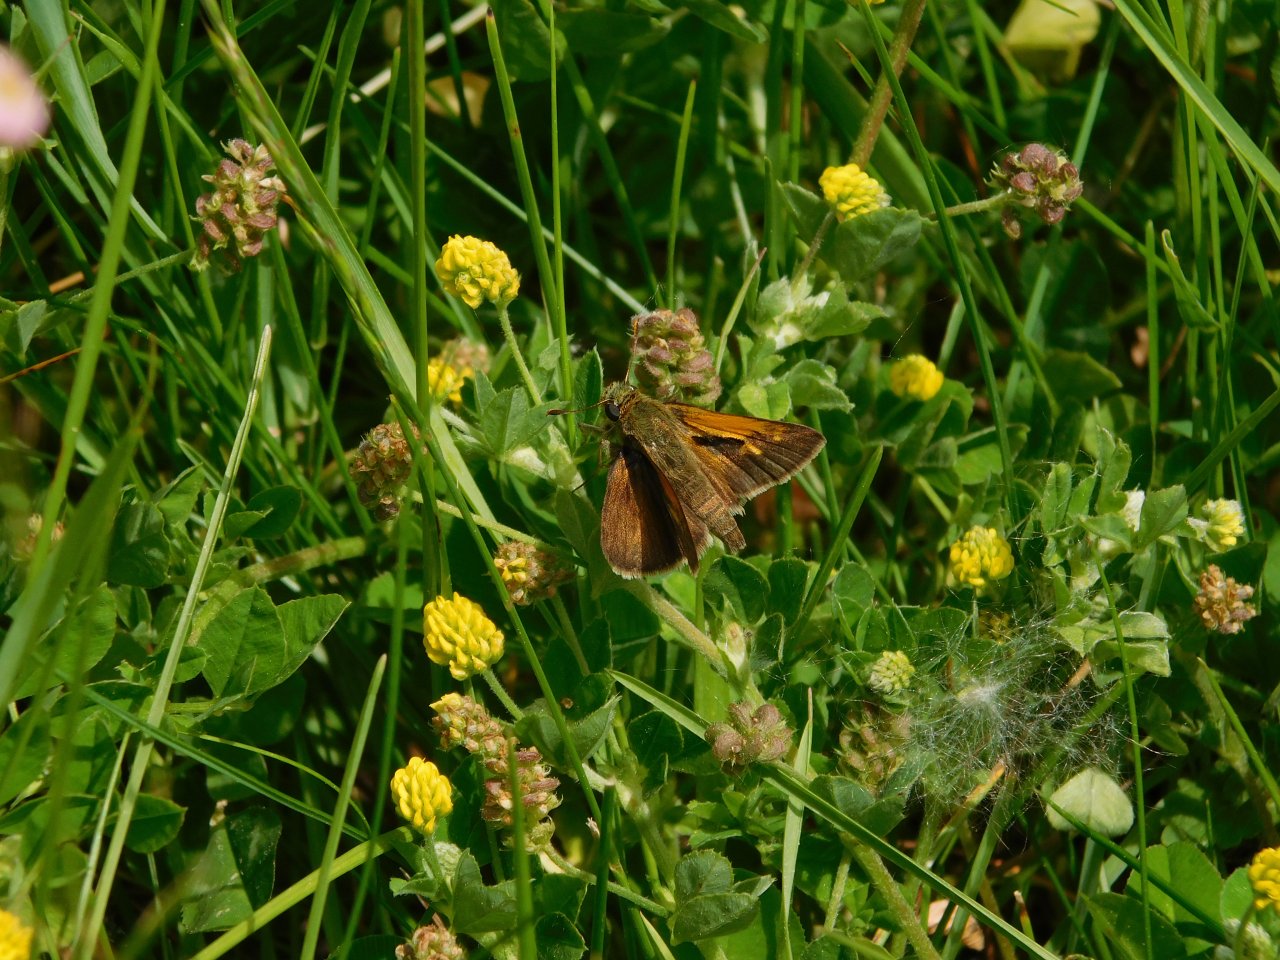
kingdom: Animalia
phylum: Arthropoda
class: Insecta
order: Lepidoptera
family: Hesperiidae
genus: Polites
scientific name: Polites themistocles
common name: Tawny-edged Skipper
